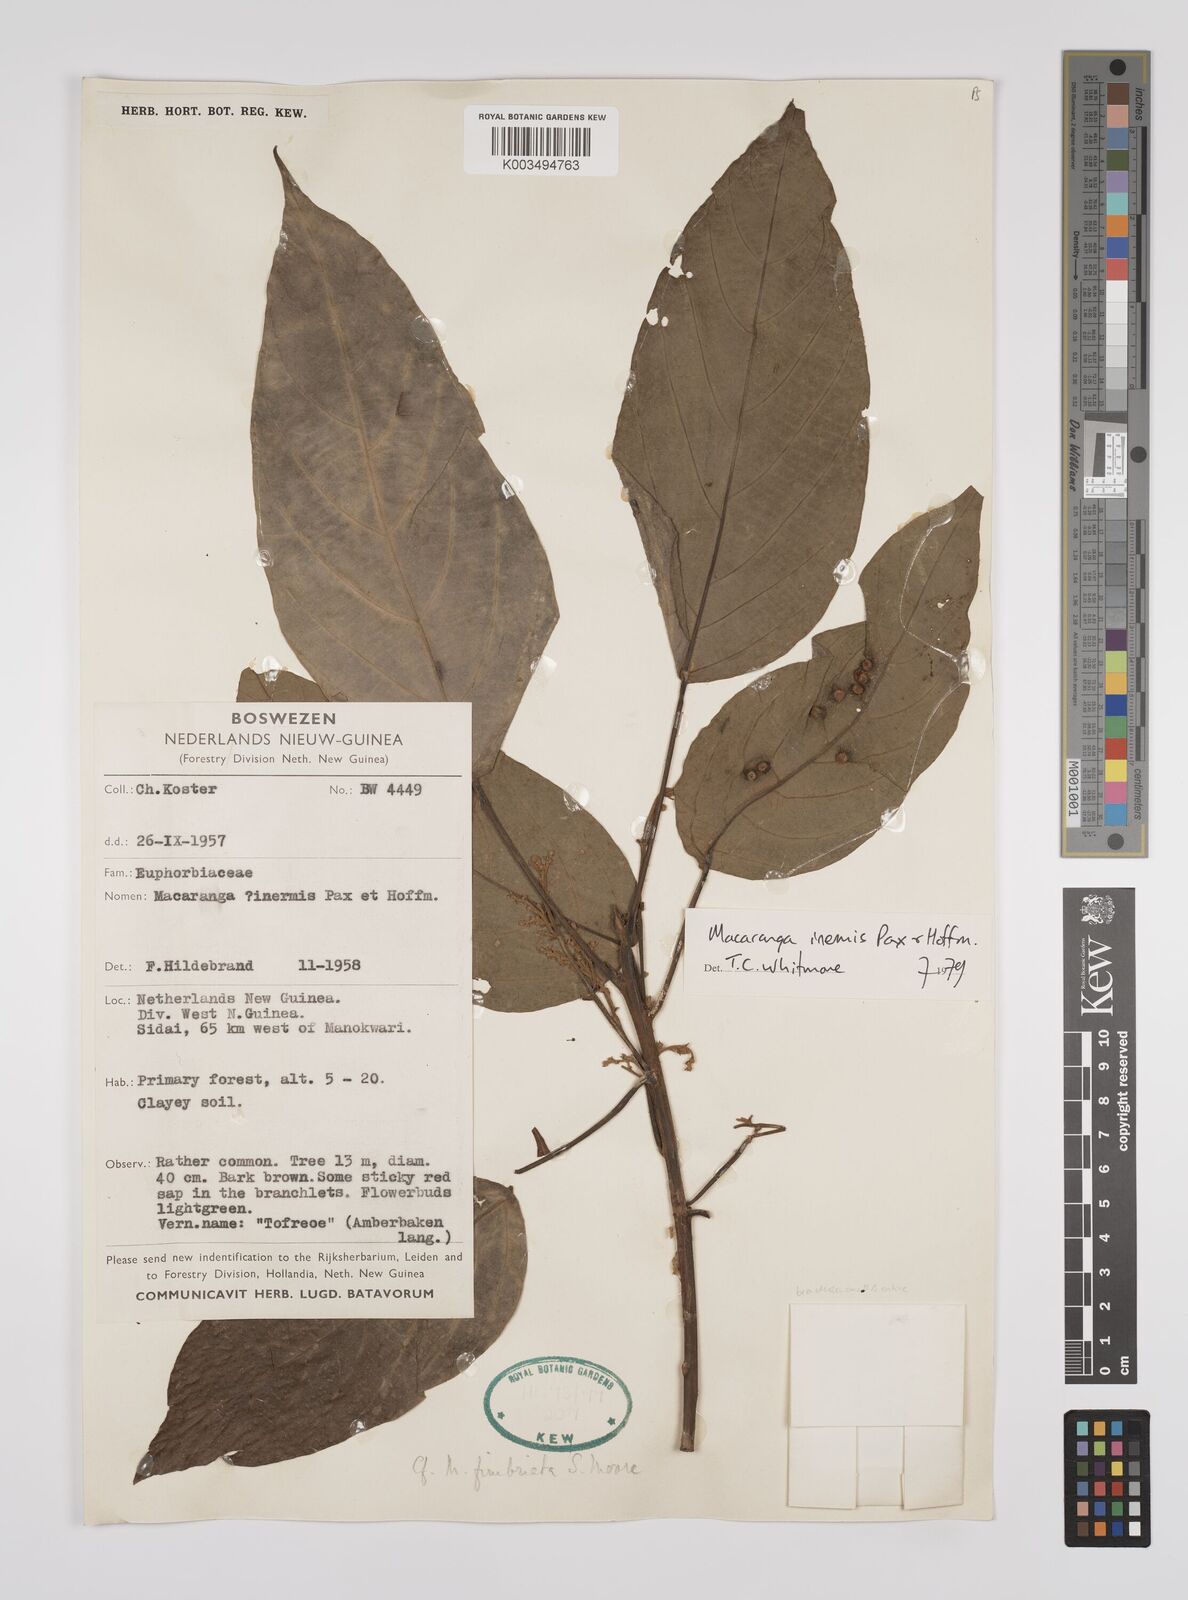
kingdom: Plantae
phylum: Tracheophyta
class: Magnoliopsida
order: Malpighiales
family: Euphorbiaceae
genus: Macaranga
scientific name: Macaranga inermis
